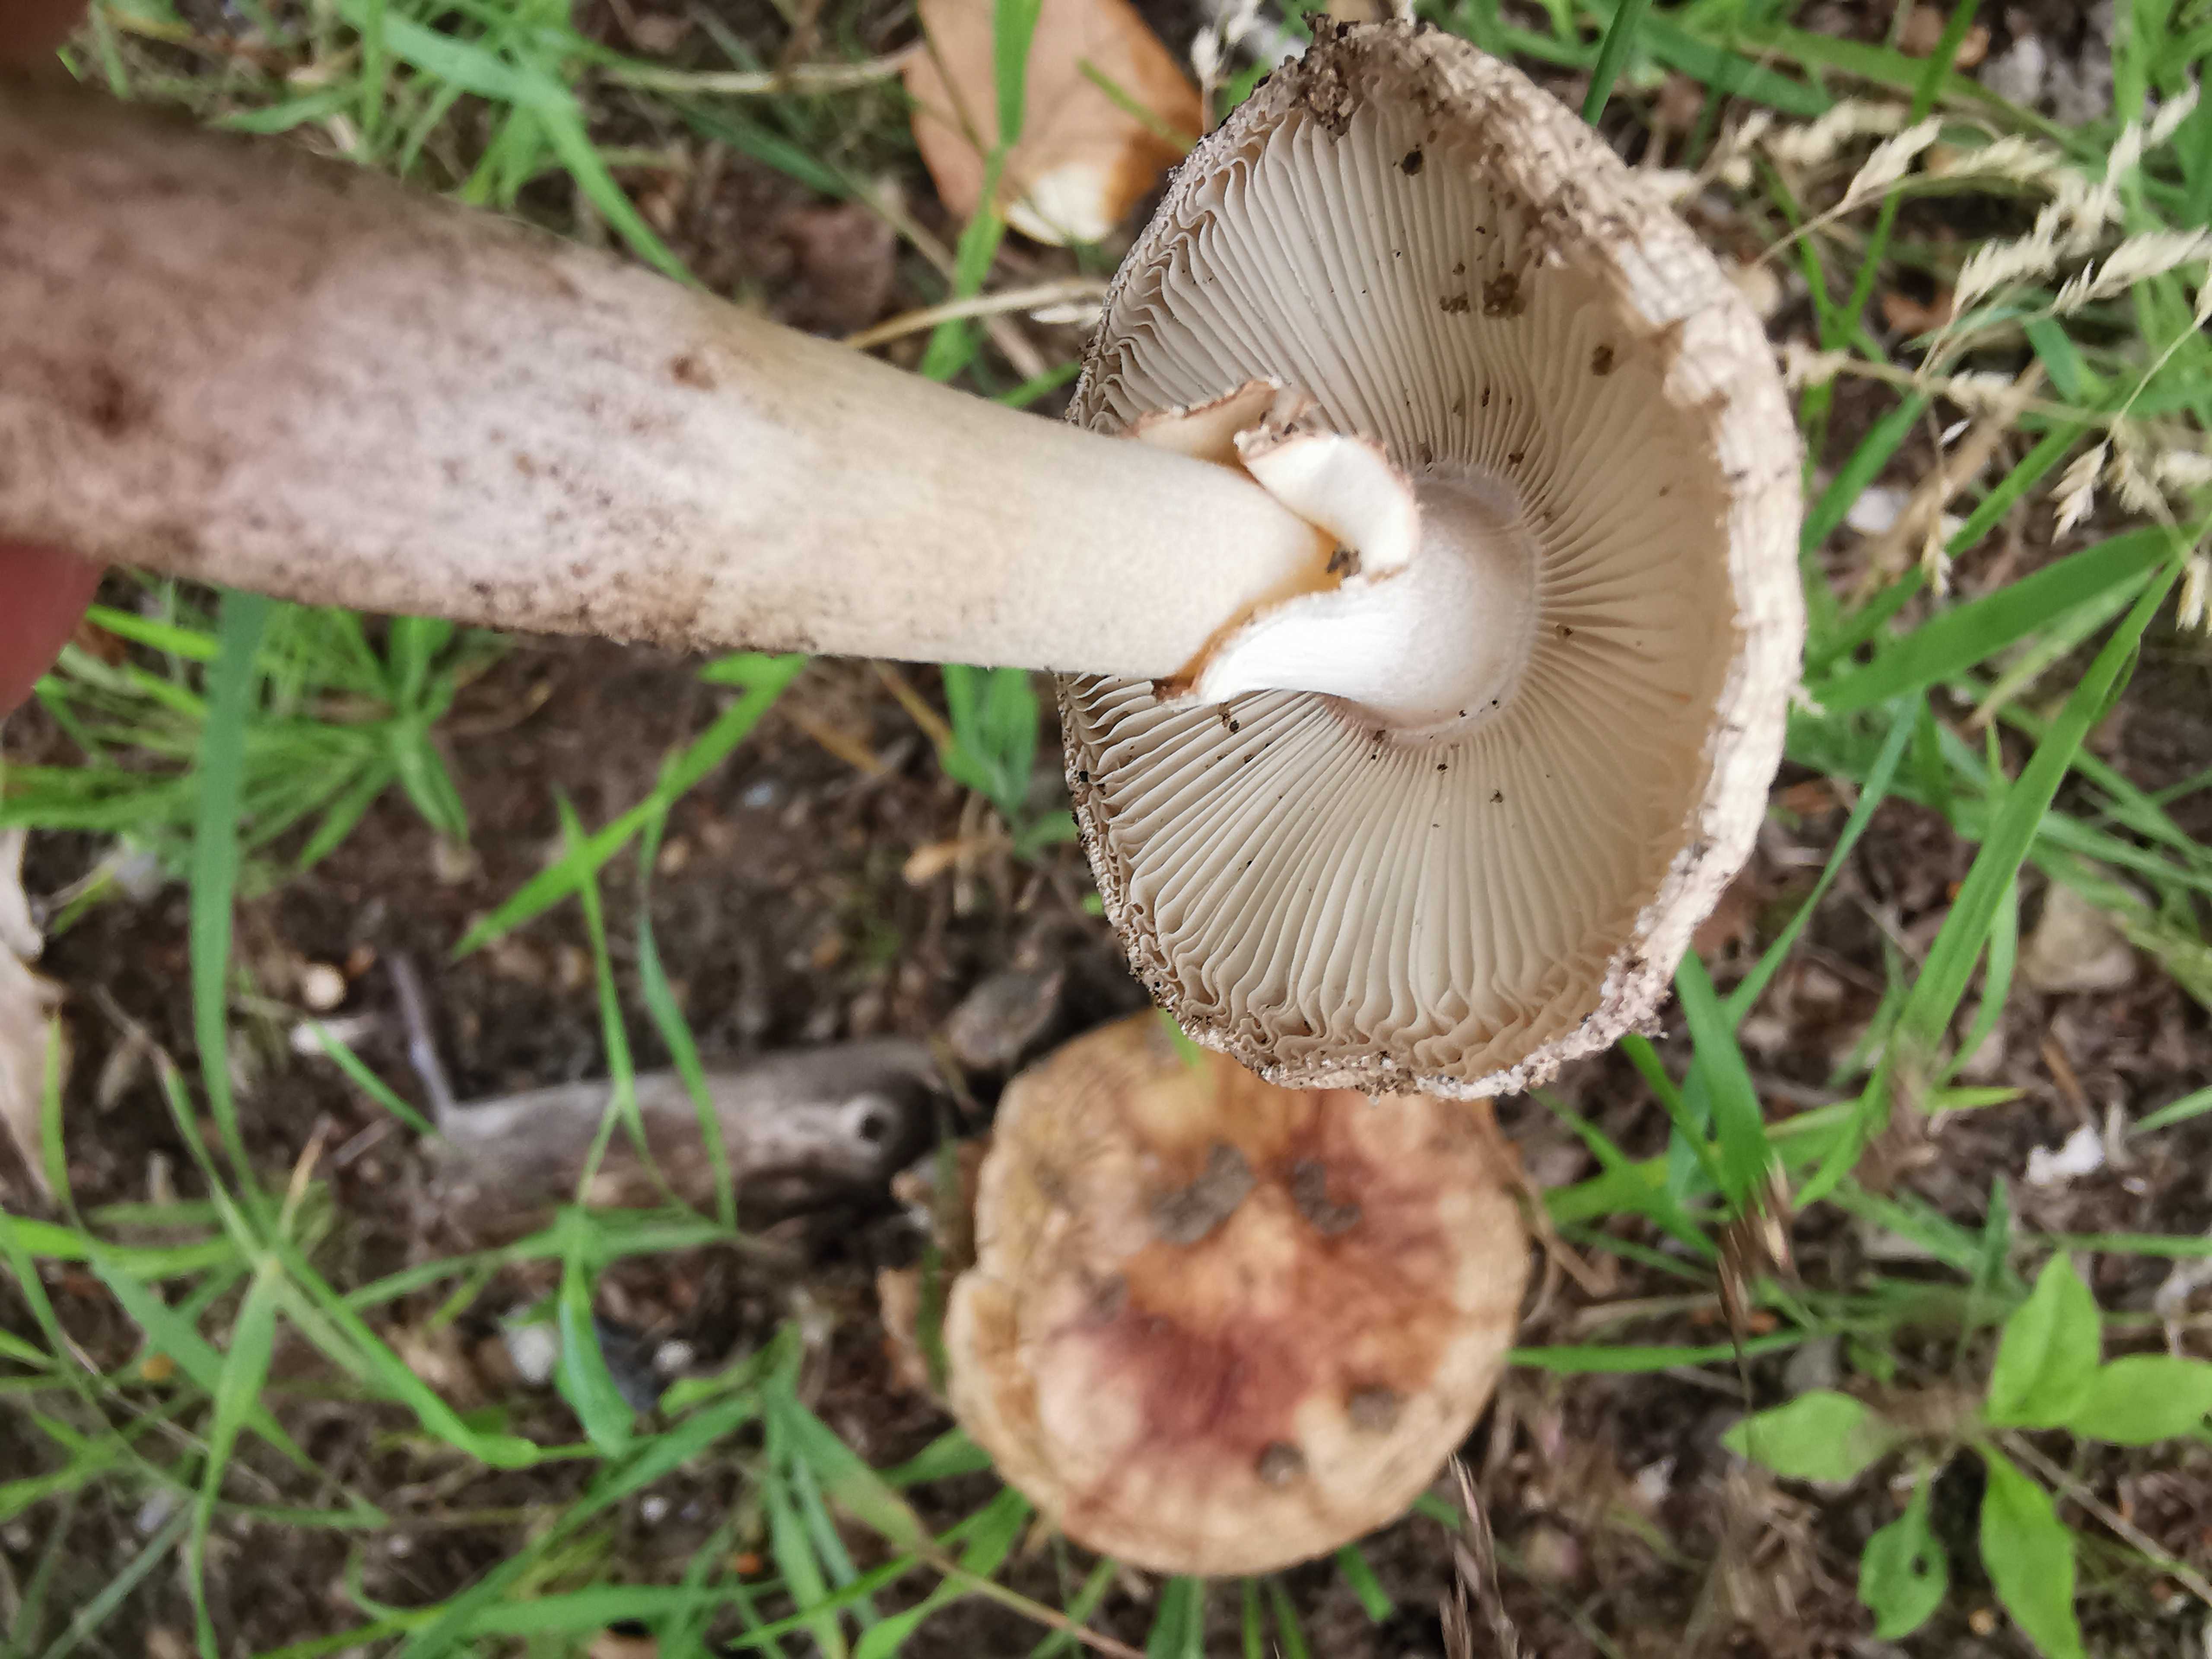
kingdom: Fungi
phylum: Basidiomycota
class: Agaricomycetes
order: Agaricales
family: Amanitaceae
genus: Amanita
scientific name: Amanita rubescens
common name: rødmende fluesvamp
